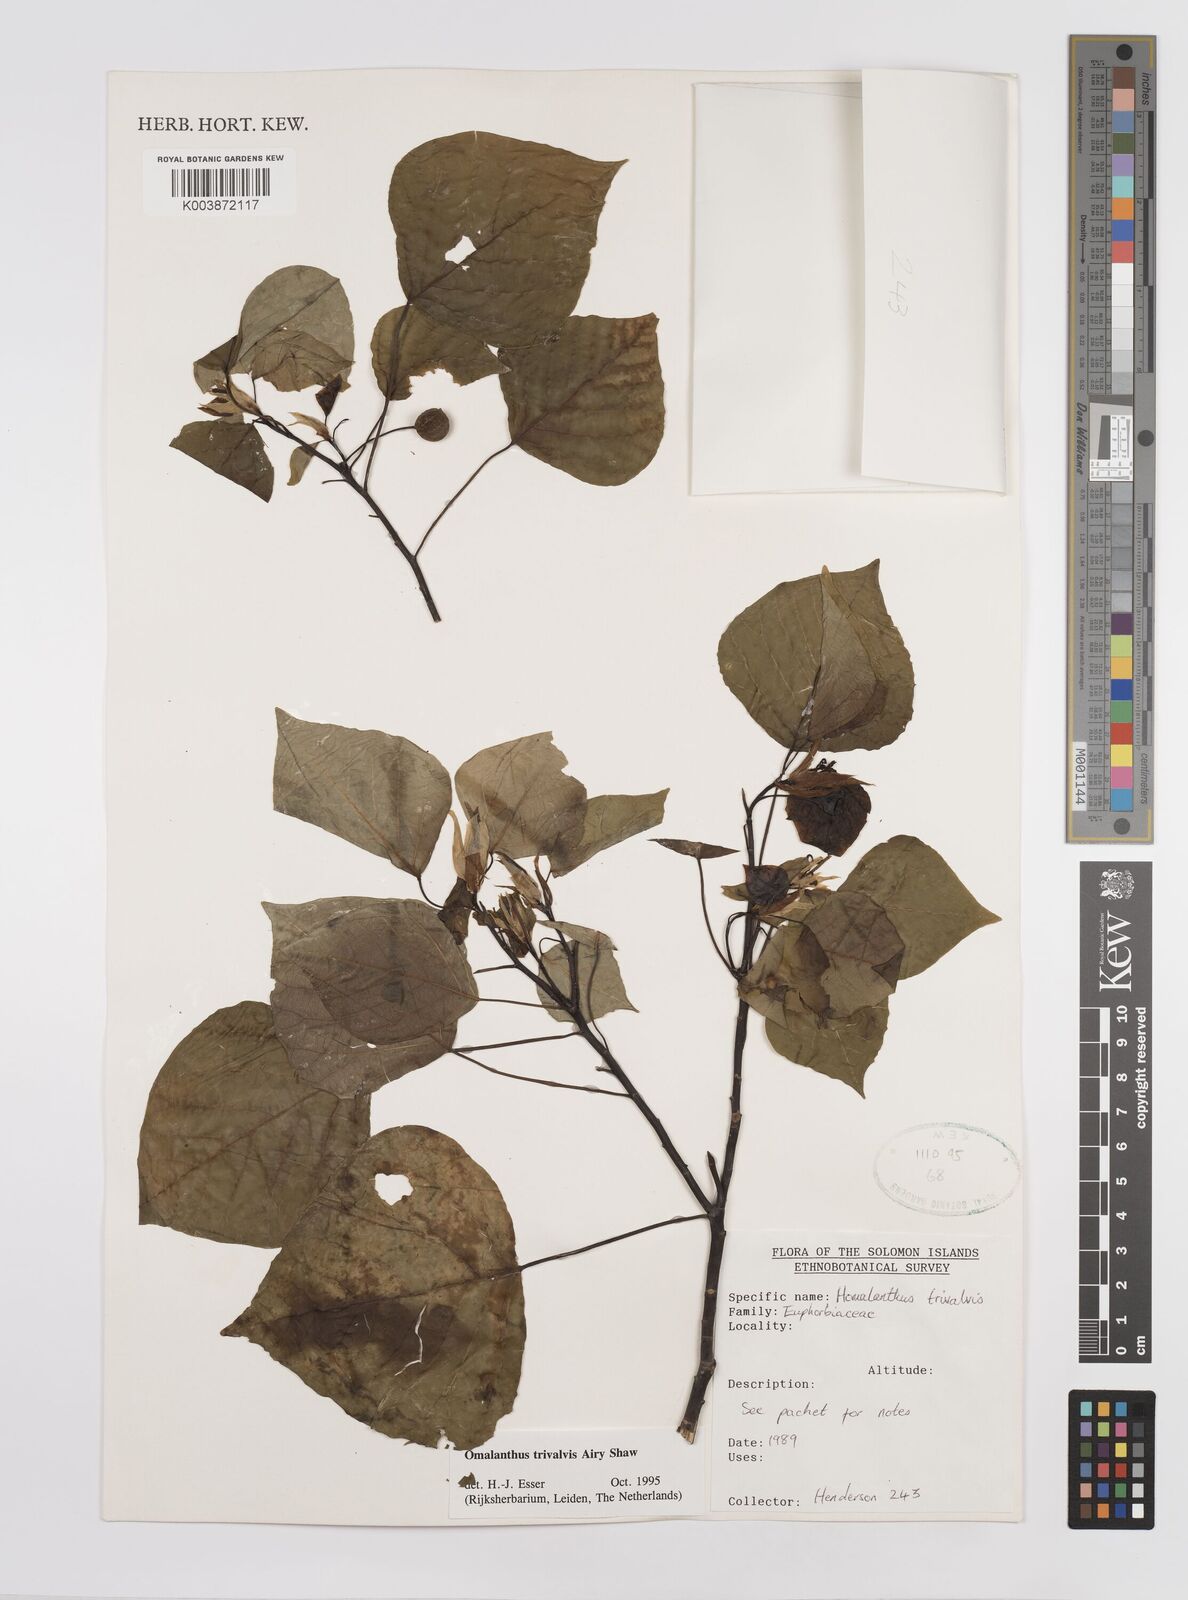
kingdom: Plantae
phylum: Tracheophyta
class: Magnoliopsida
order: Malpighiales
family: Euphorbiaceae
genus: Homalanthus
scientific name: Homalanthus trivalvis
